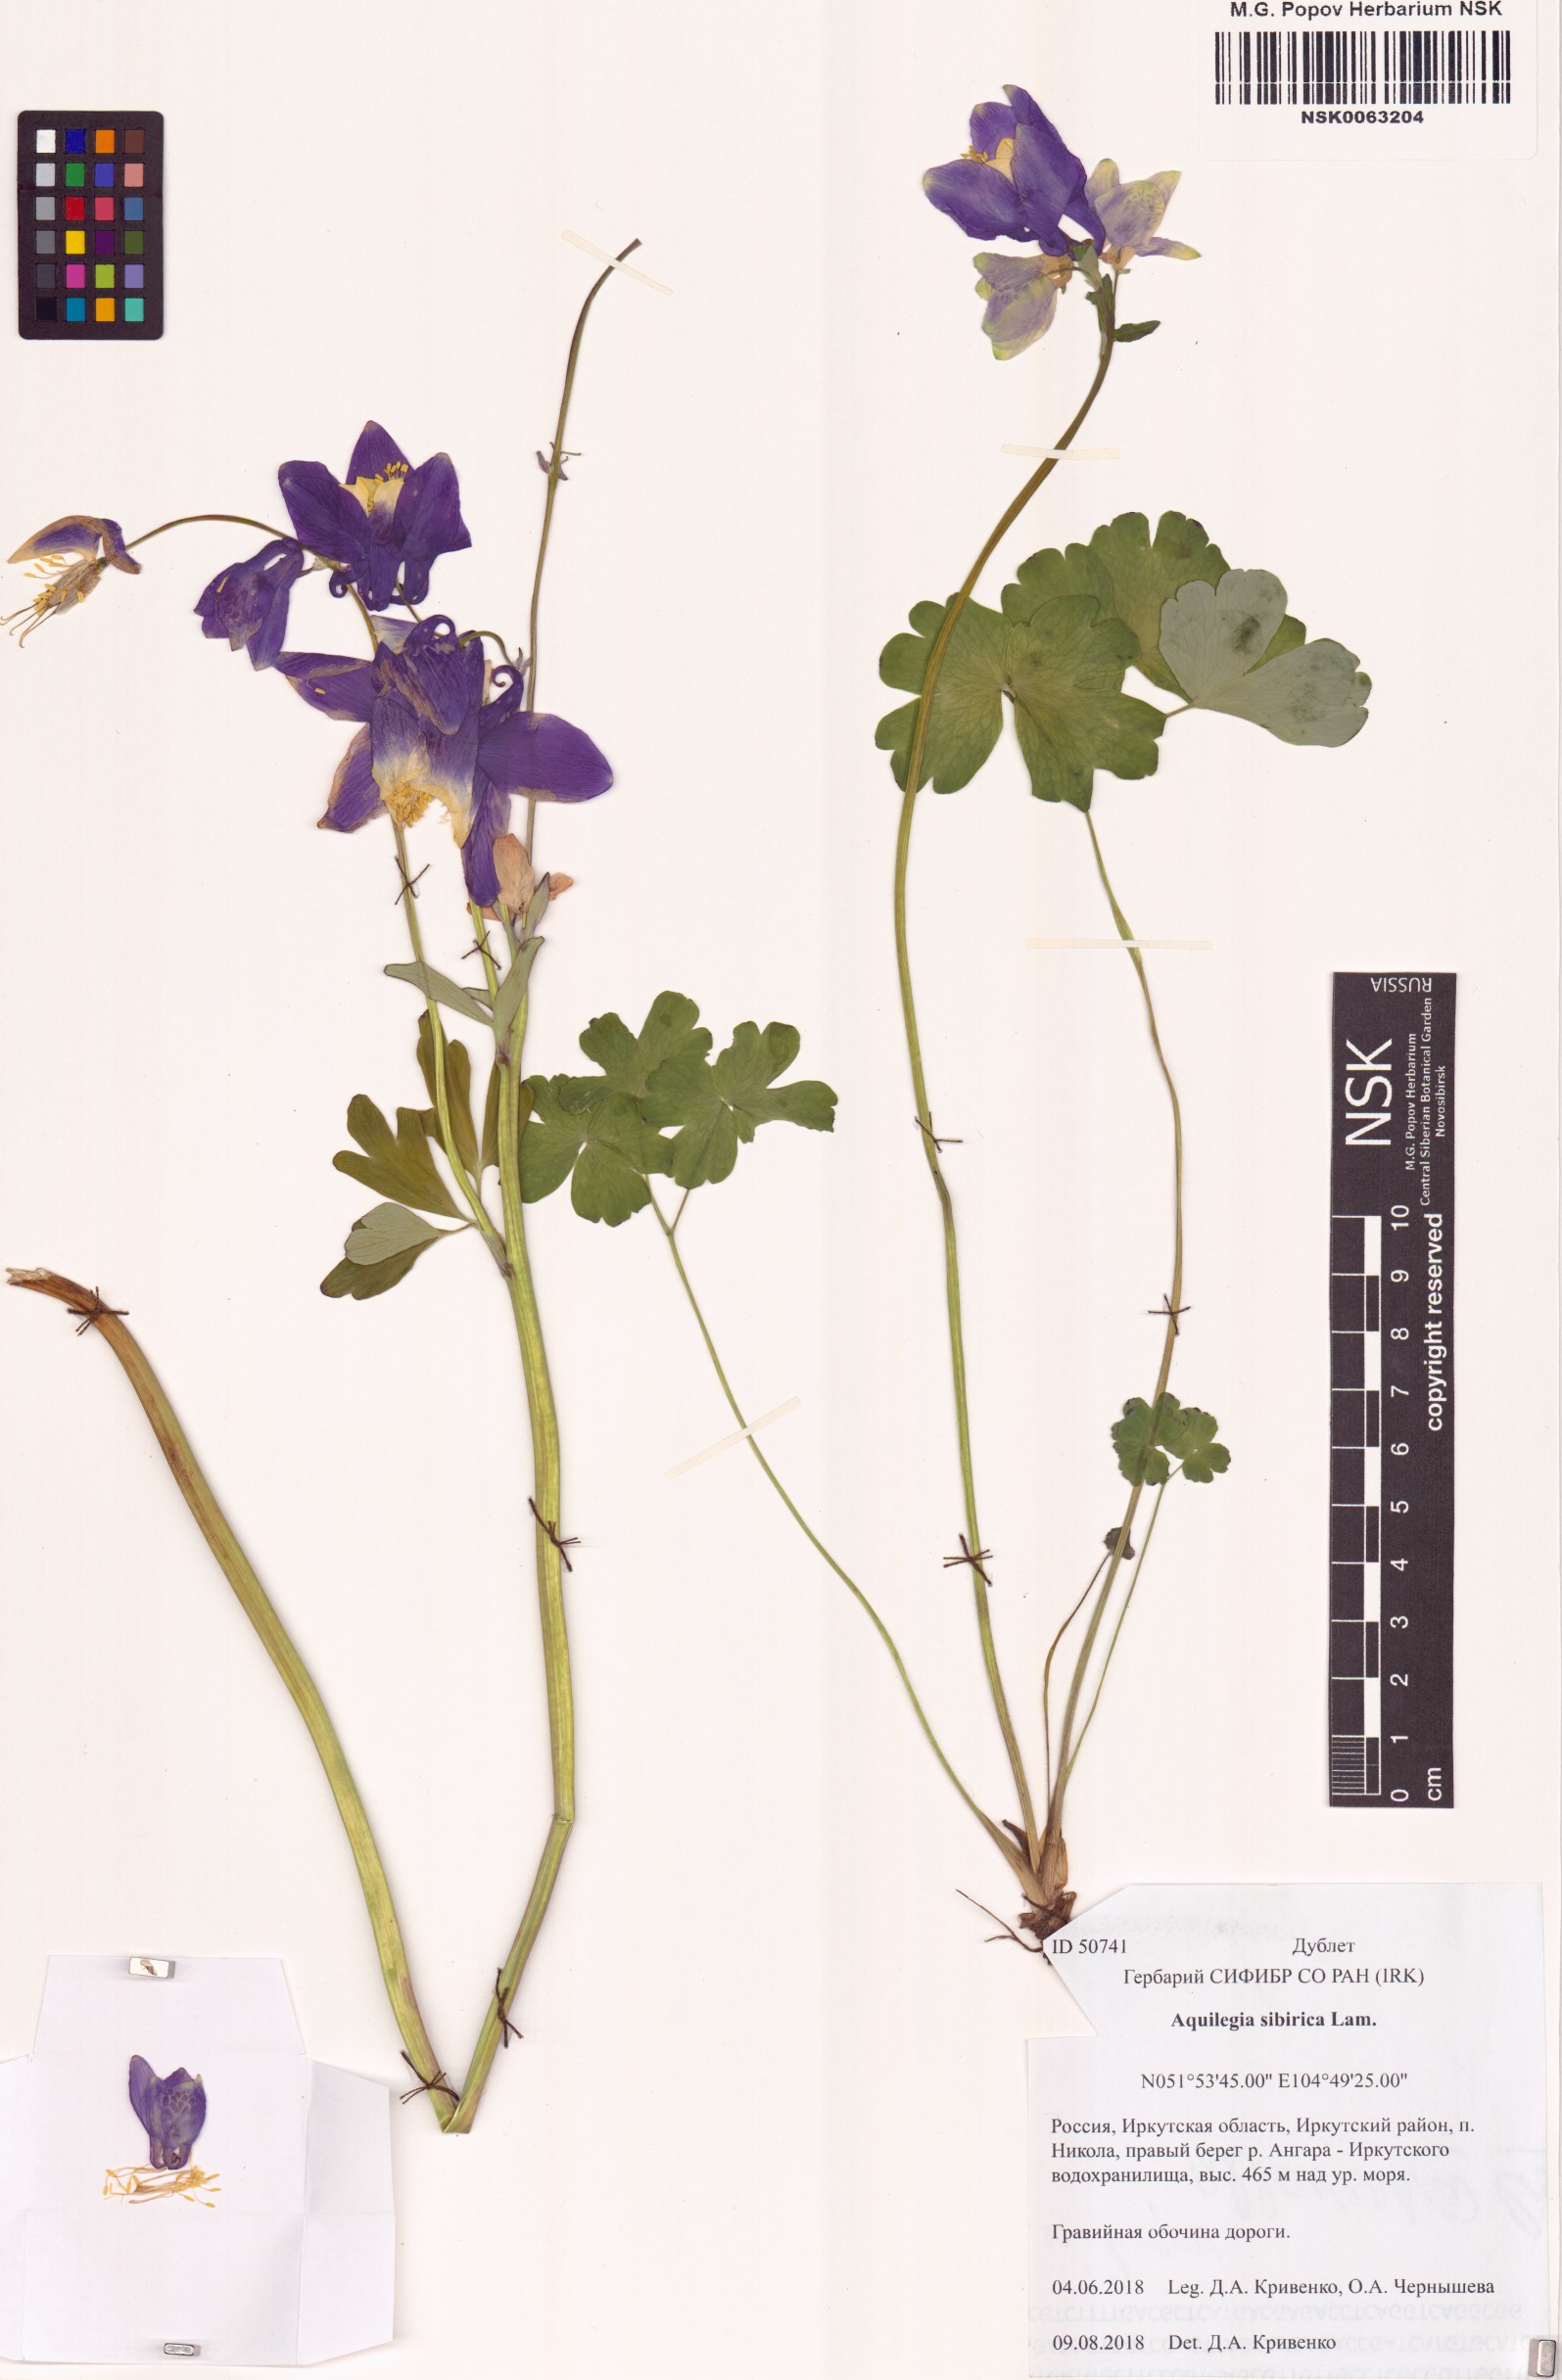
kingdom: Plantae
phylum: Tracheophyta
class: Magnoliopsida
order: Ranunculales
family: Ranunculaceae
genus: Aquilegia
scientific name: Aquilegia sibirica
